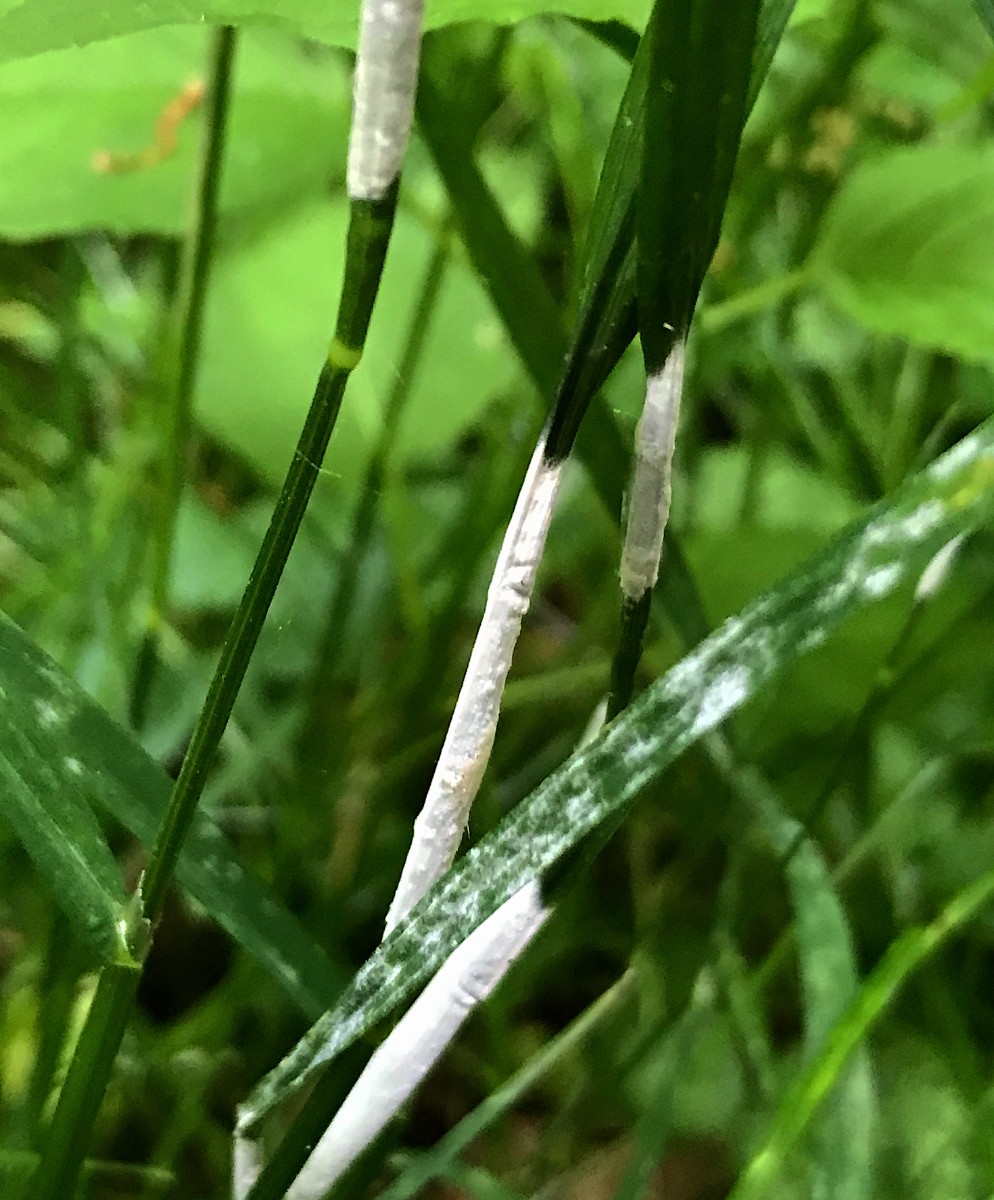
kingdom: Fungi
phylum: Ascomycota
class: Sordariomycetes
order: Hypocreales
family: Clavicipitaceae
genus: Epichloe
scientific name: Epichloe
